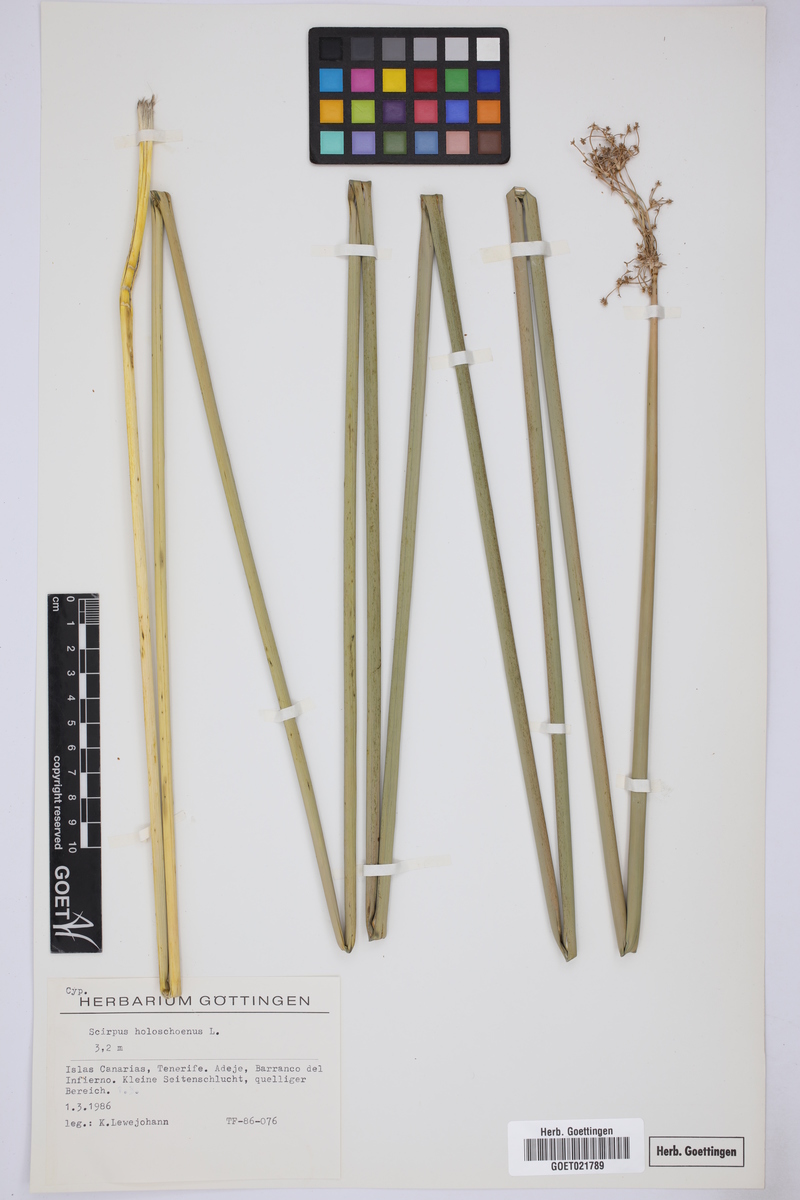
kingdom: Plantae
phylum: Tracheophyta
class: Liliopsida
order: Poales
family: Cyperaceae
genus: Scirpoides
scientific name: Scirpoides holoschoenus
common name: Round-headed club-rush
